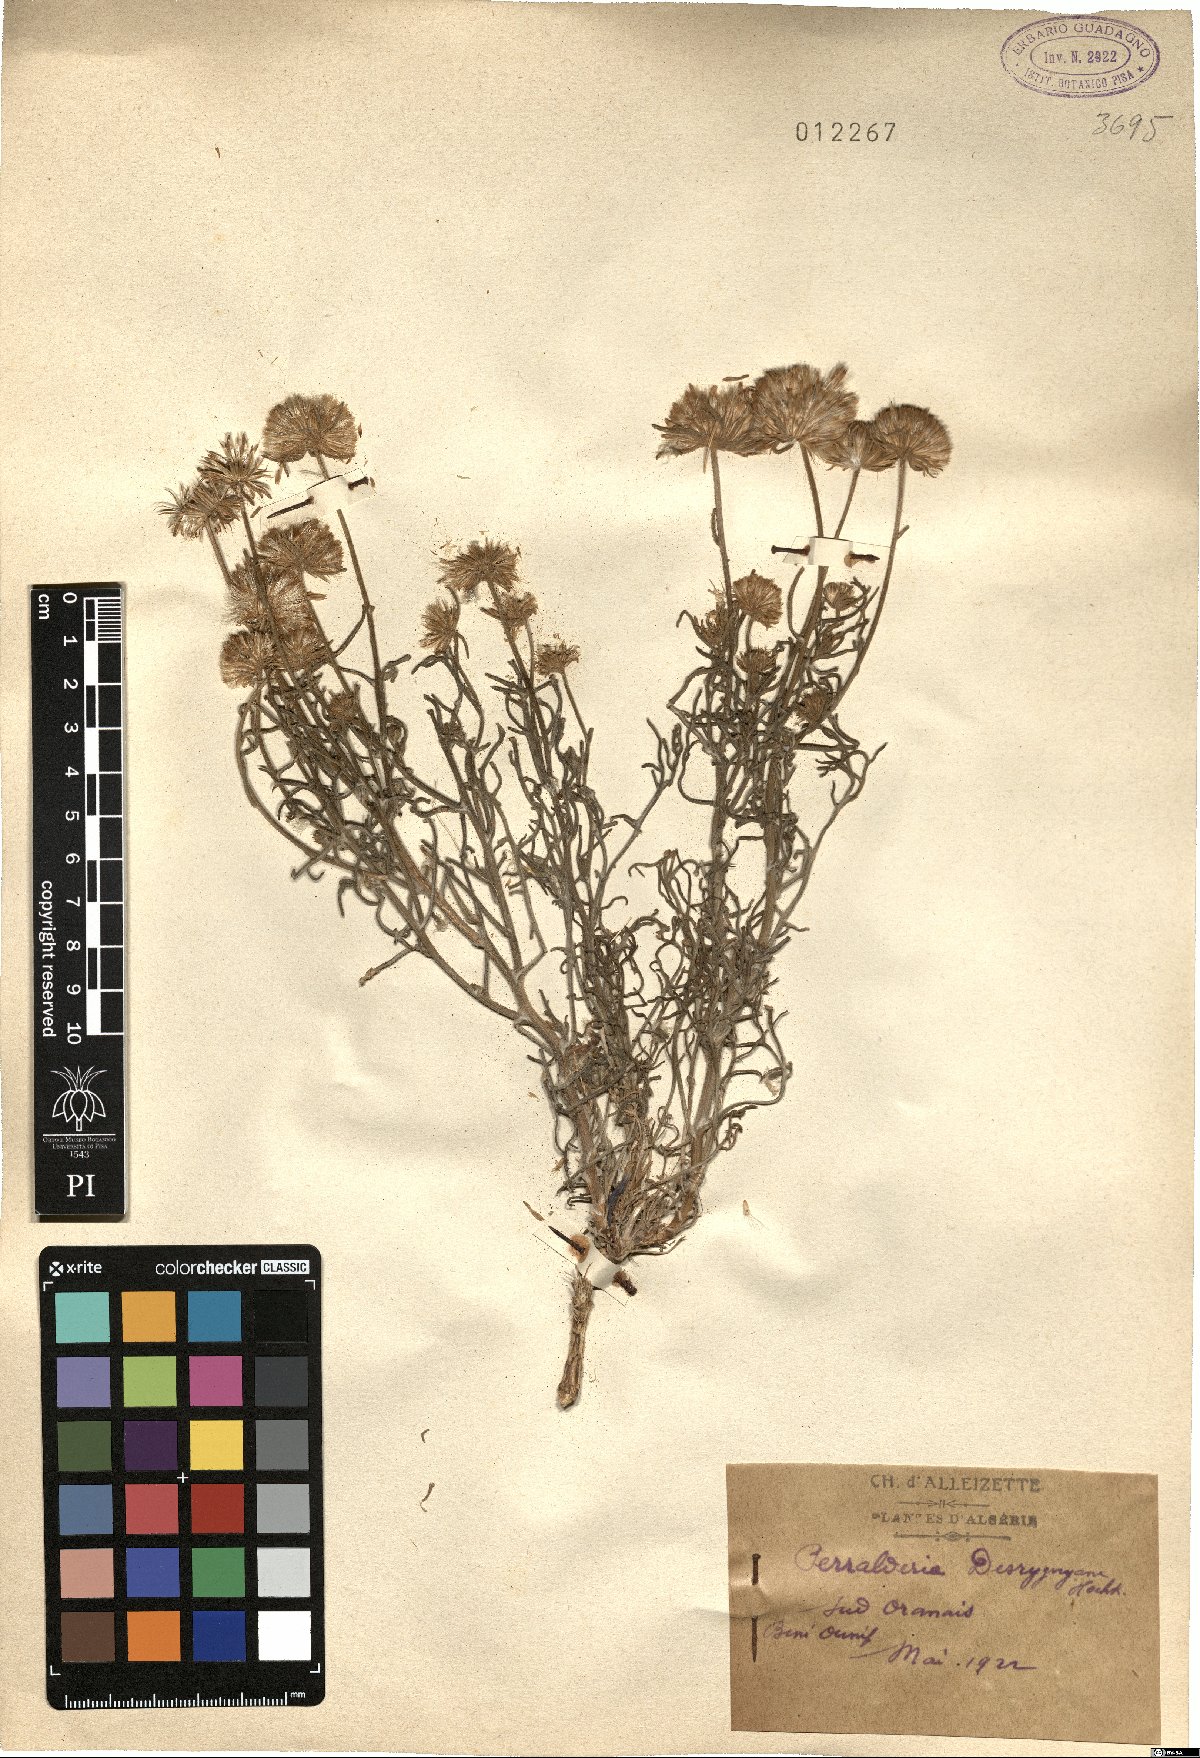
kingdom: Plantae
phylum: Tracheophyta
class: Magnoliopsida
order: Asterales
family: Asteraceae
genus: Perralderia
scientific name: Perralderia coronopifolia
